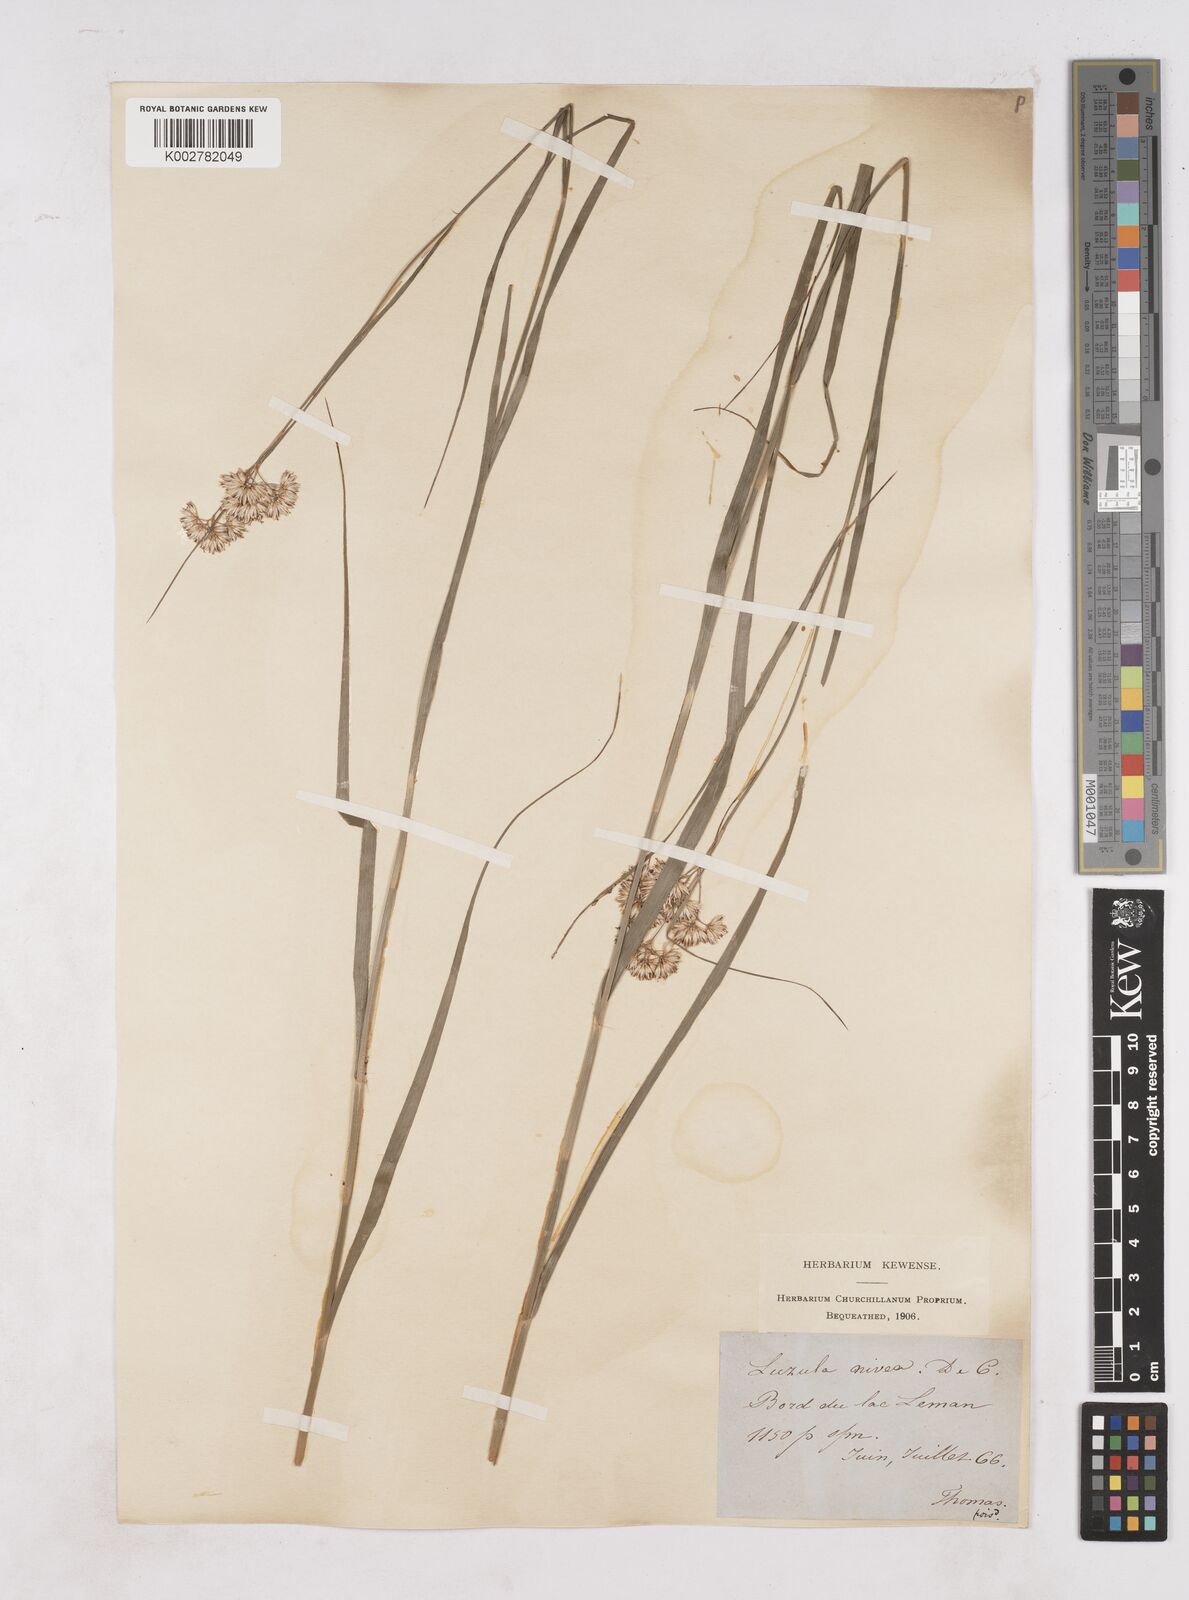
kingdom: Plantae
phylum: Tracheophyta
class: Liliopsida
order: Poales
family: Juncaceae
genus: Luzula
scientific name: Luzula nivea
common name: Snow-white wood-rush
